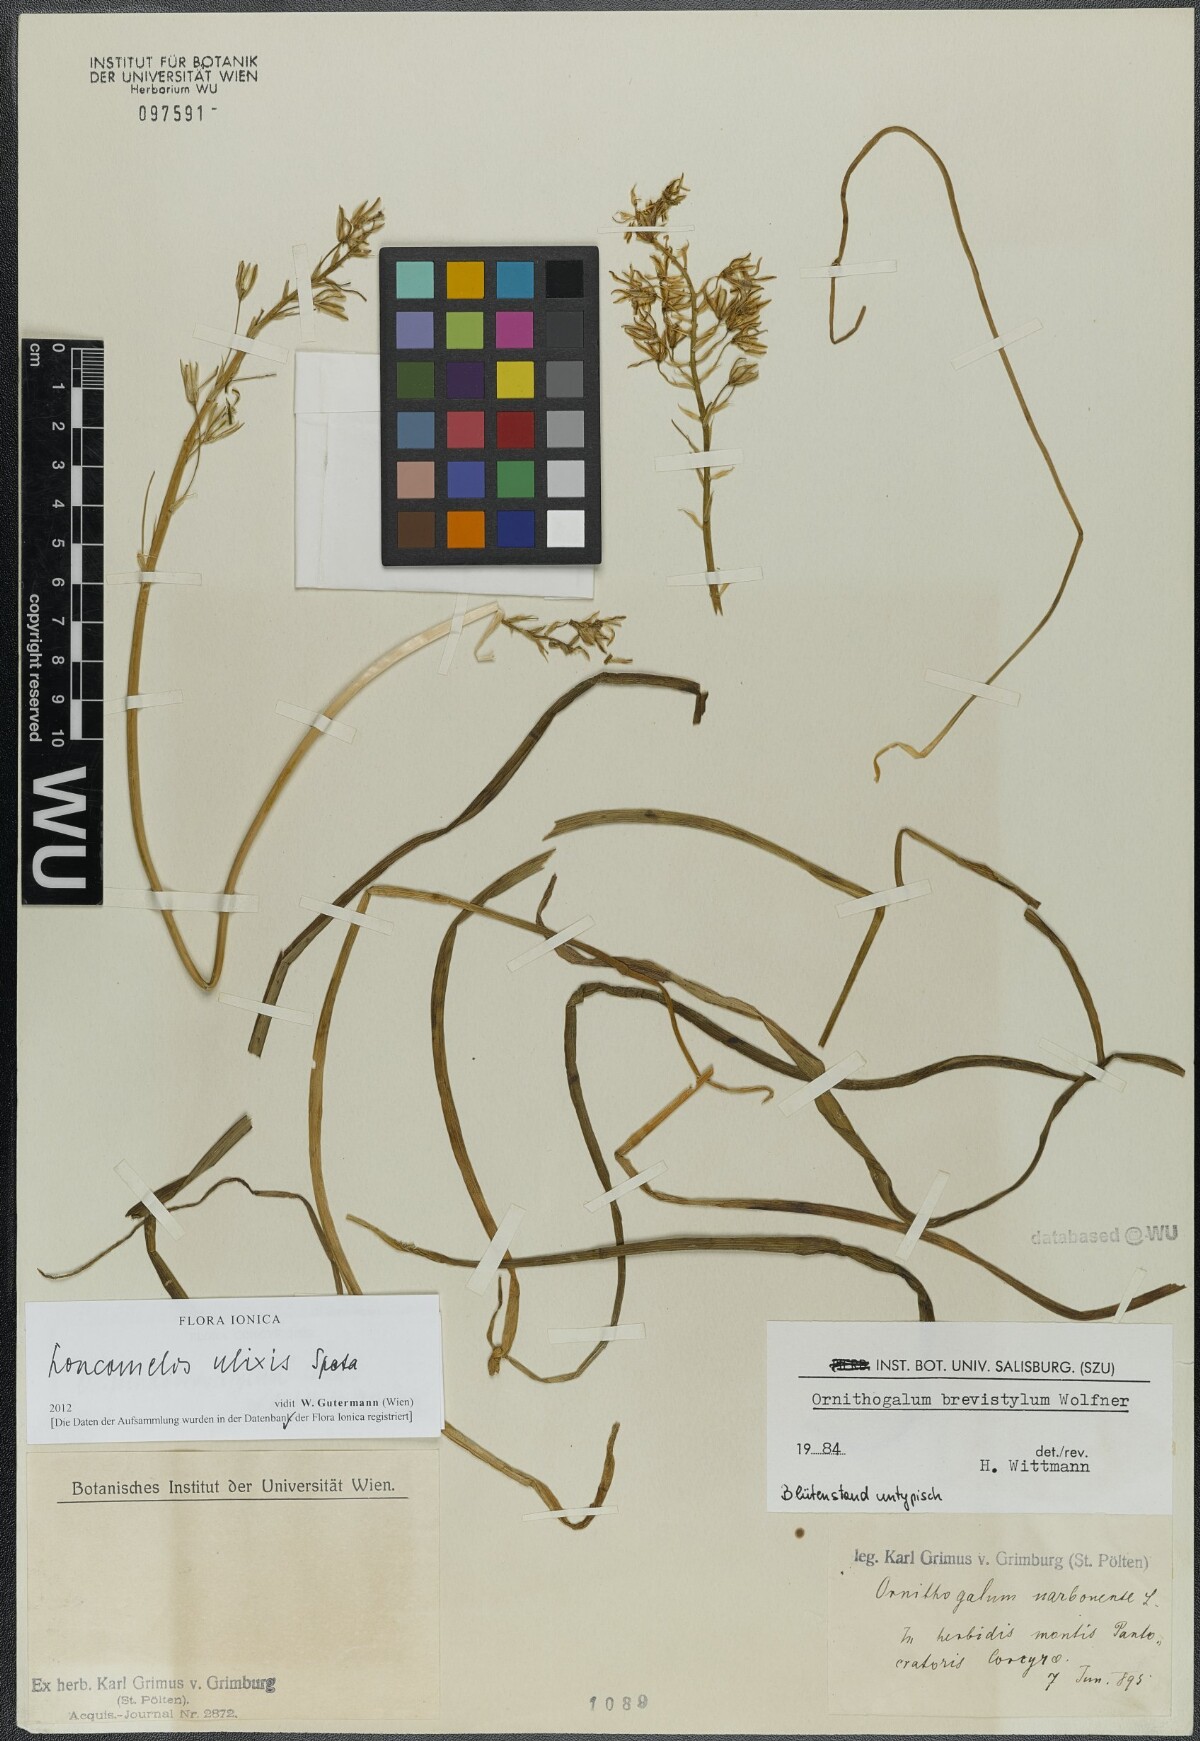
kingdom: Plantae
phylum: Tracheophyta
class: Liliopsida
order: Asparagales
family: Asparagaceae
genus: Ornithogalum
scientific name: Ornithogalum ulixis
